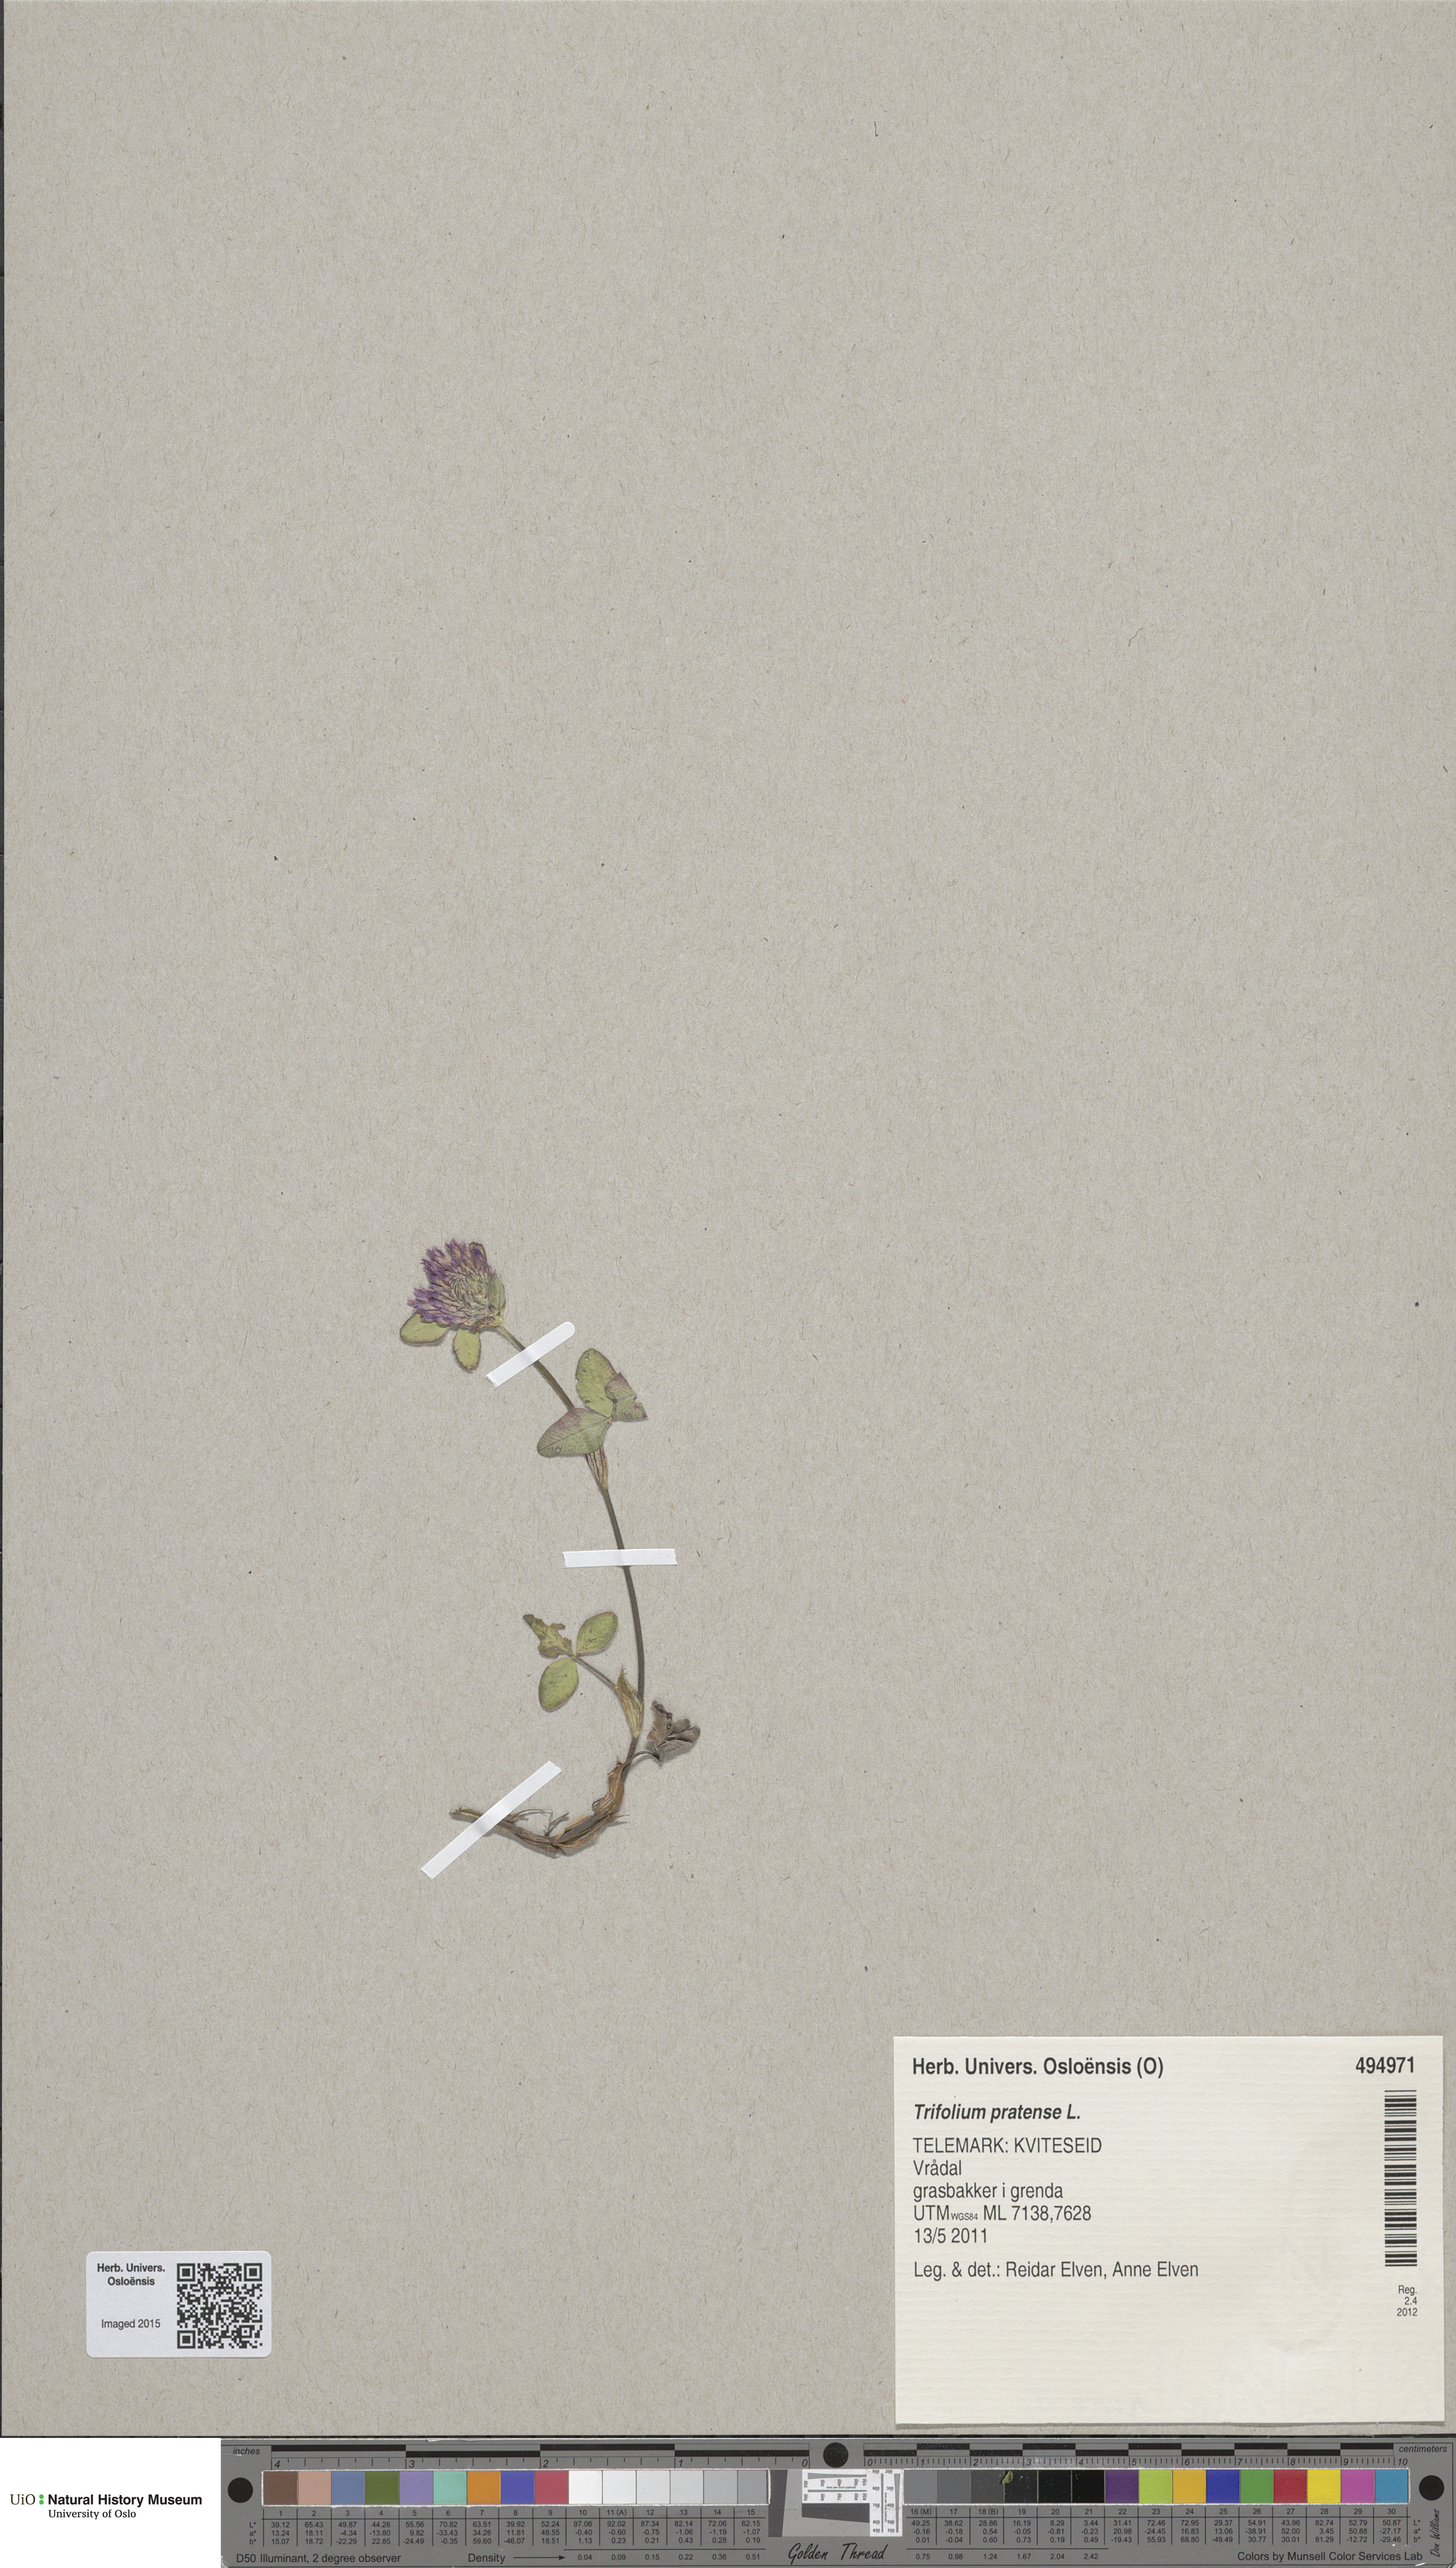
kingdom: Plantae
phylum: Tracheophyta
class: Magnoliopsida
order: Fabales
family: Fabaceae
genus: Trifolium
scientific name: Trifolium pratense
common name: Red clover
